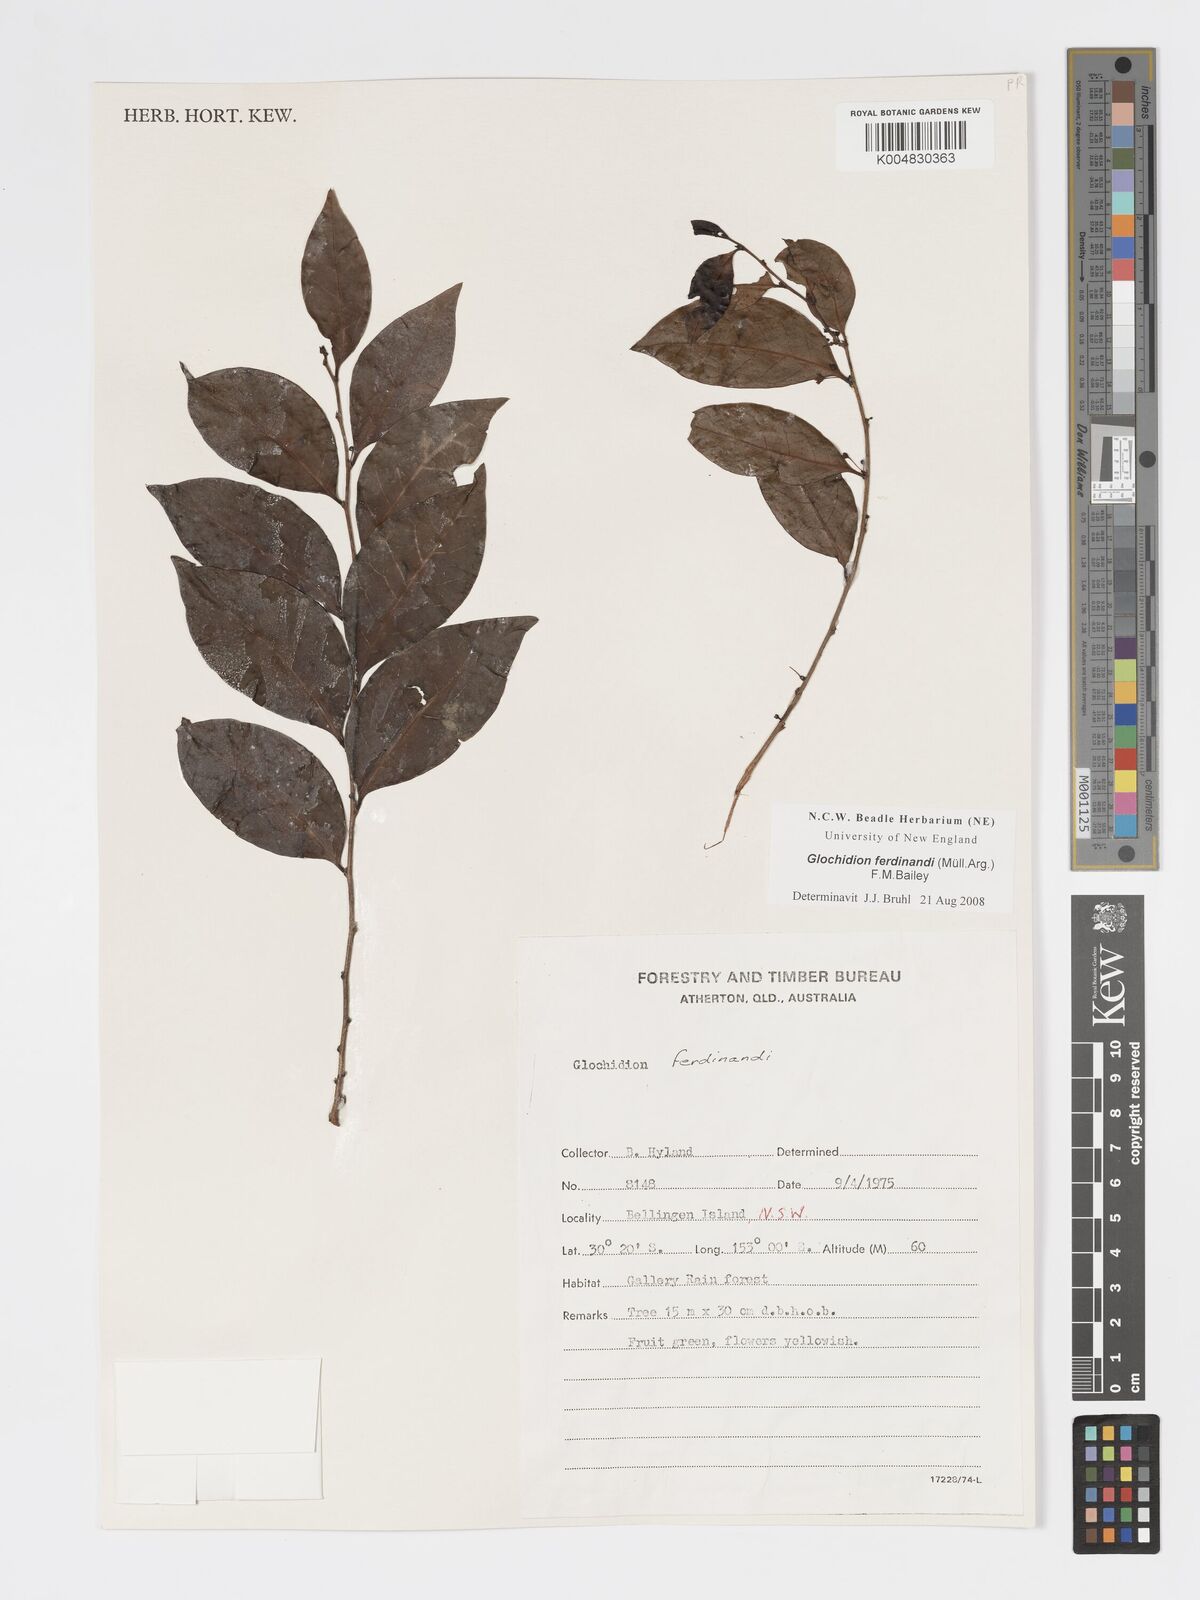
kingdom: Plantae
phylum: Tracheophyta
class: Magnoliopsida
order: Malpighiales
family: Phyllanthaceae
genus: Glochidion
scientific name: Glochidion ferdinandi
